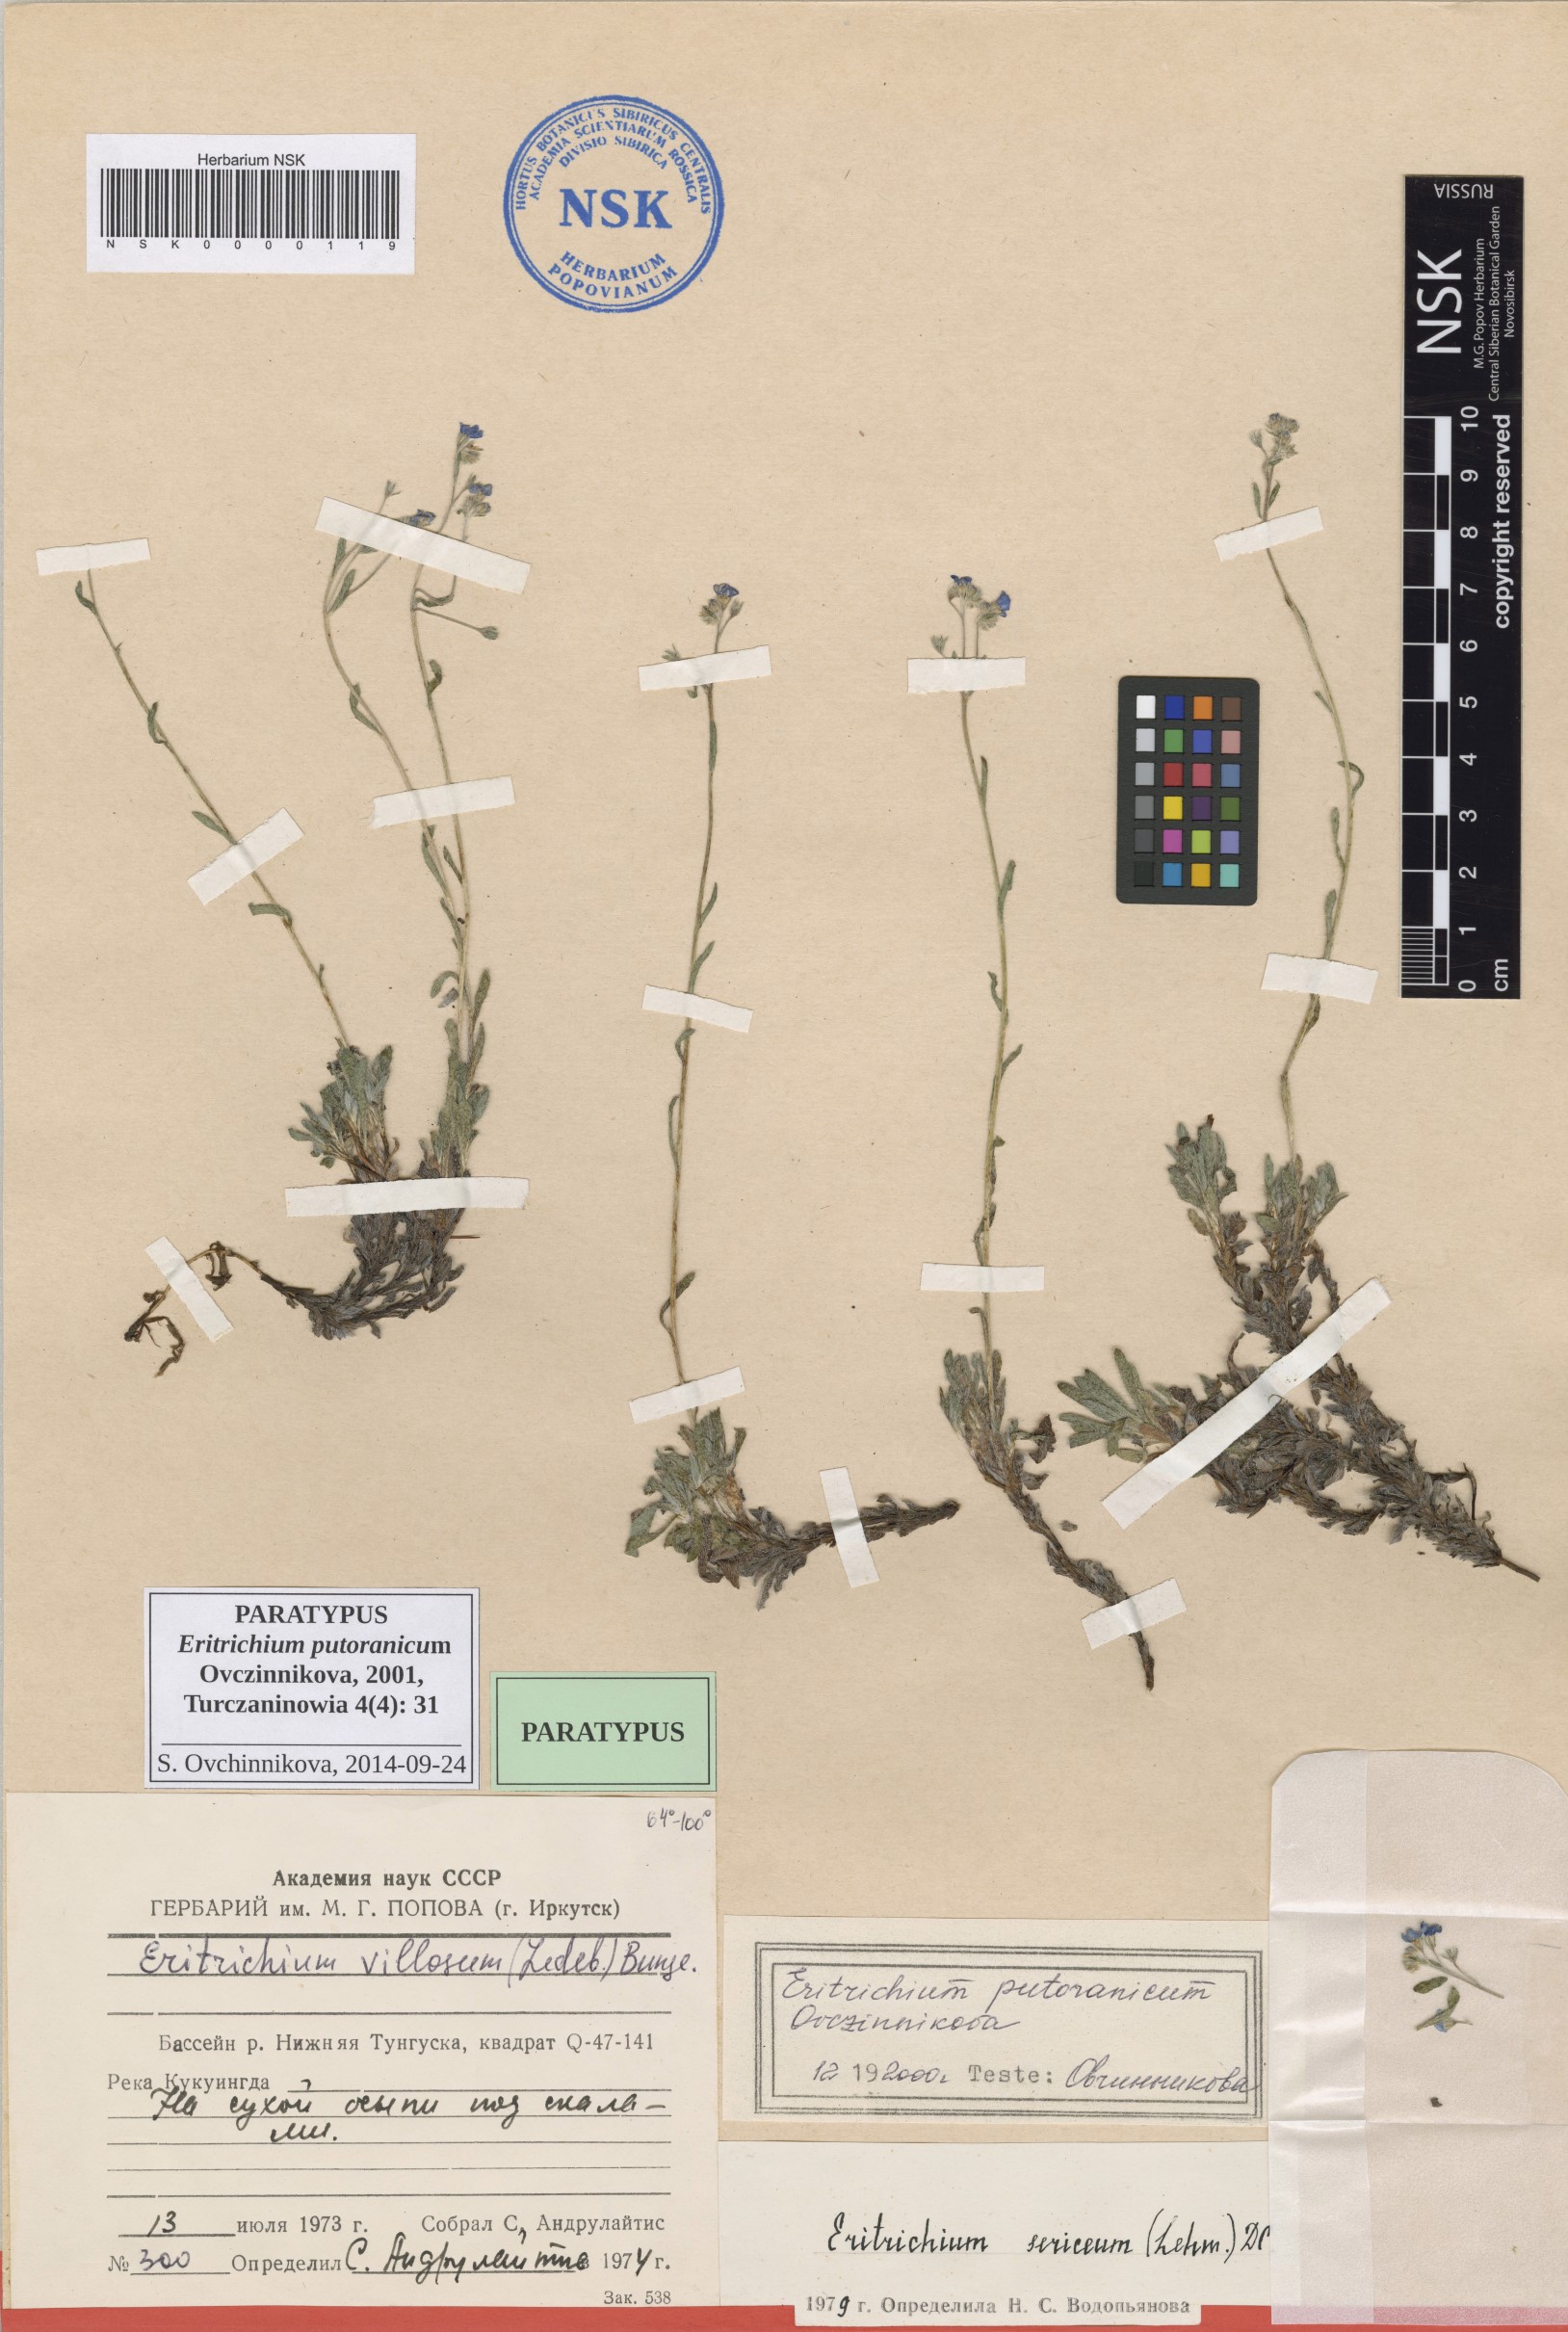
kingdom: Plantae
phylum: Tracheophyta
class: Magnoliopsida
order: Boraginales
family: Boraginaceae
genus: Eritrichium
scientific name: Eritrichium putoranicum
